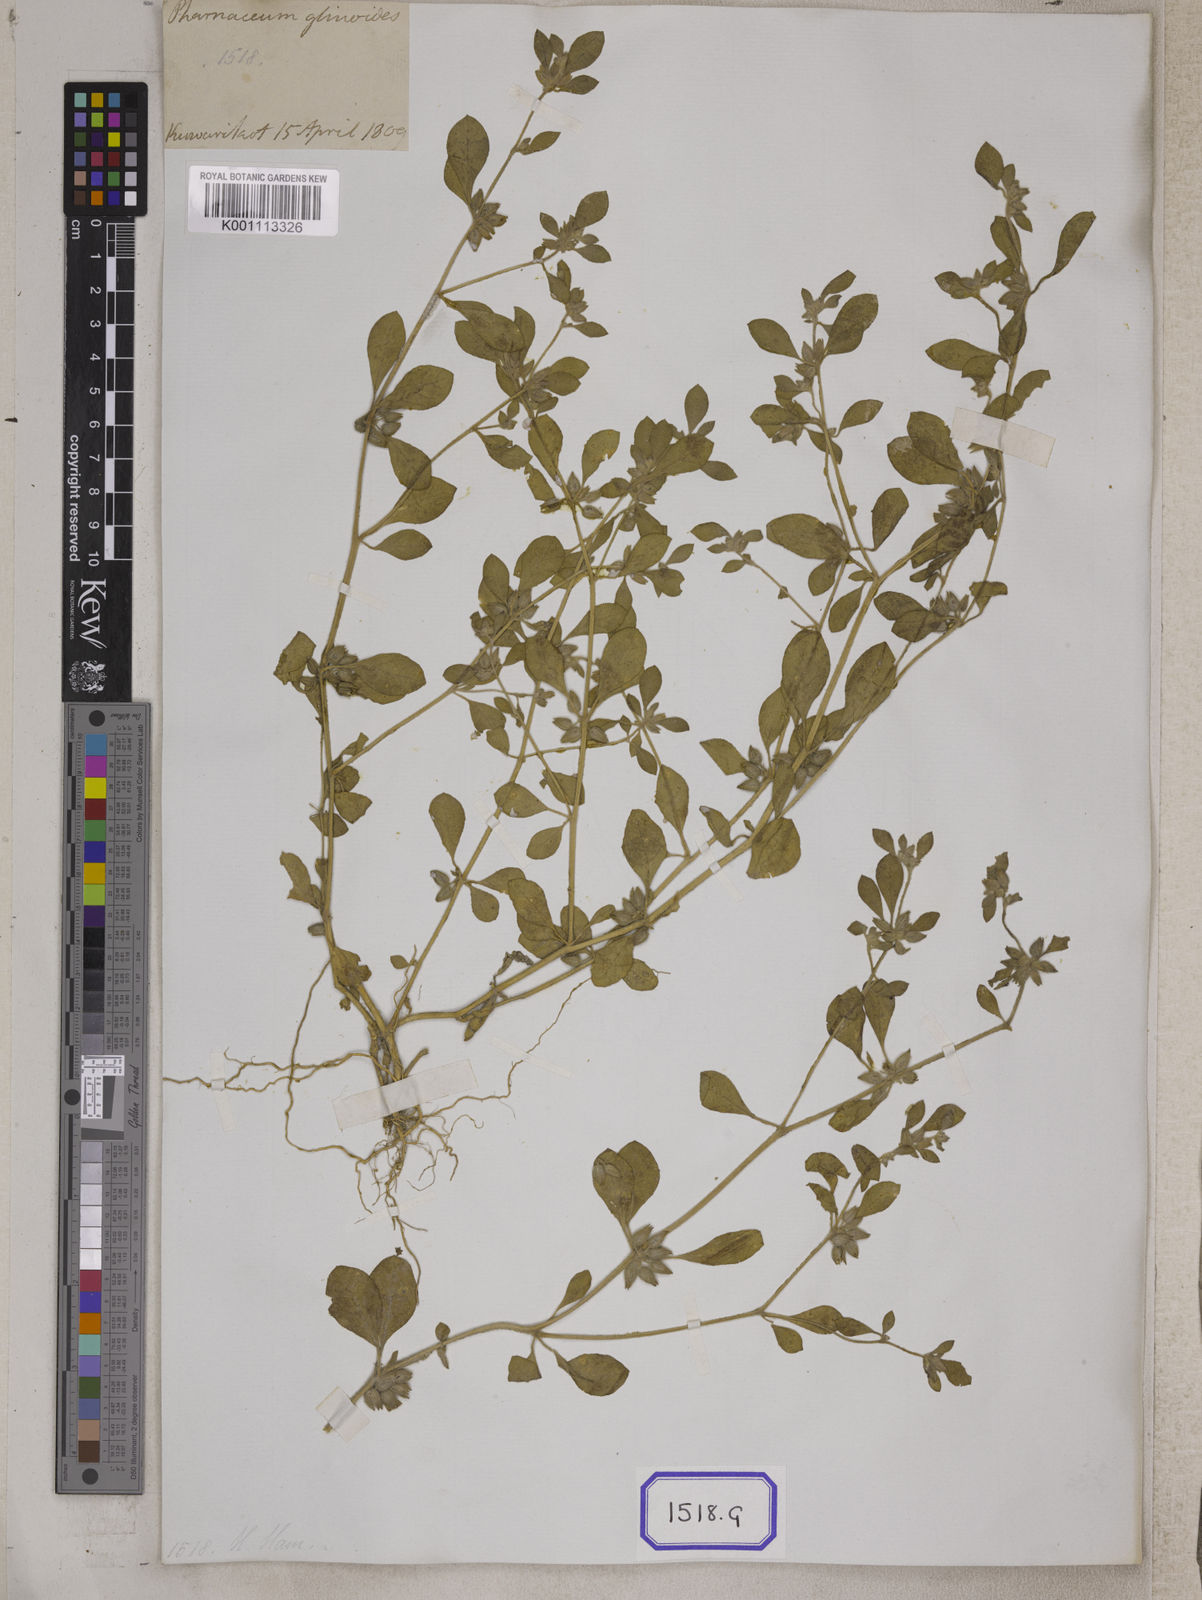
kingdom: Plantae
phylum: Tracheophyta
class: Magnoliopsida
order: Caryophyllales
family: Molluginaceae
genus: Glinus
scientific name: Glinus
